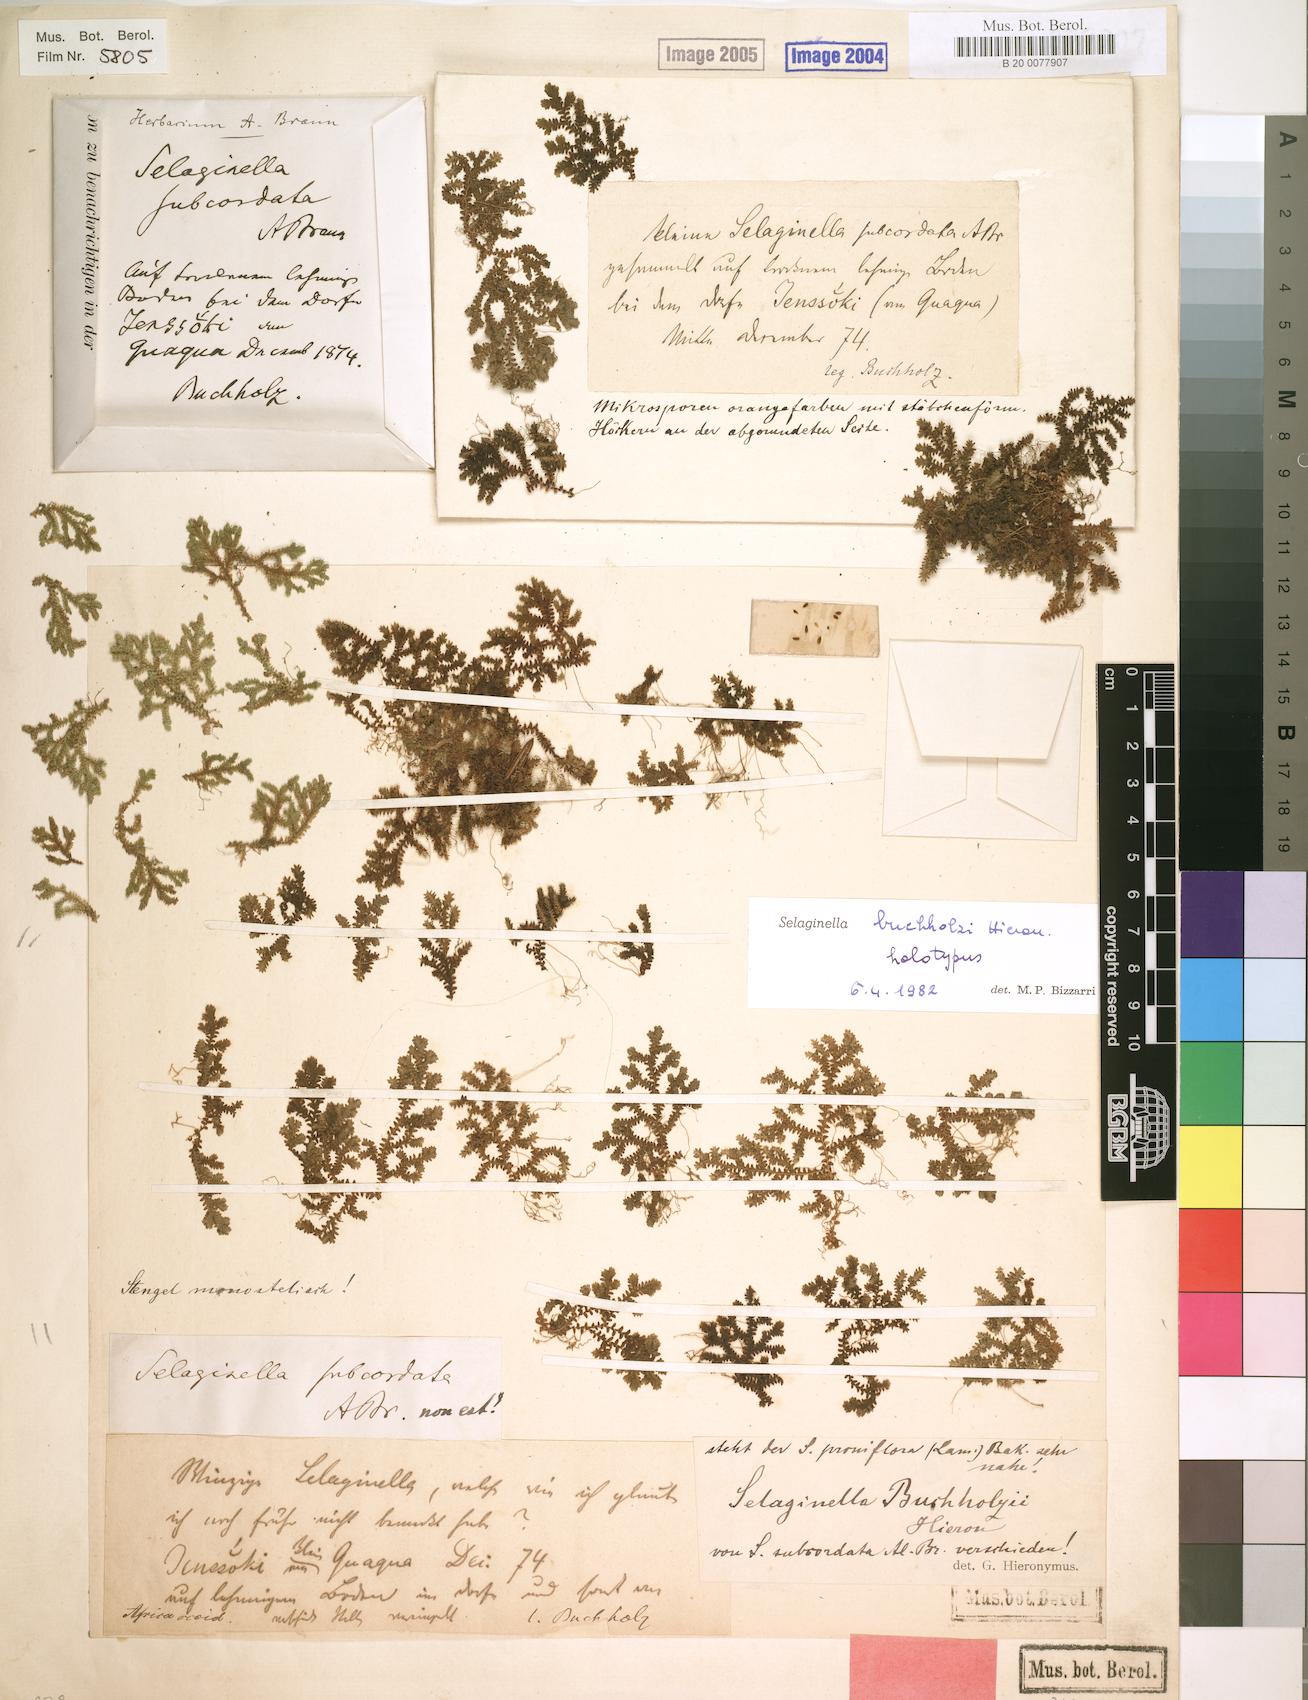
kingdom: Plantae
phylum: Tracheophyta
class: Lycopodiopsida
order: Selaginellales
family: Selaginellaceae
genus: Selaginella
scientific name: Selaginella buchholzii
